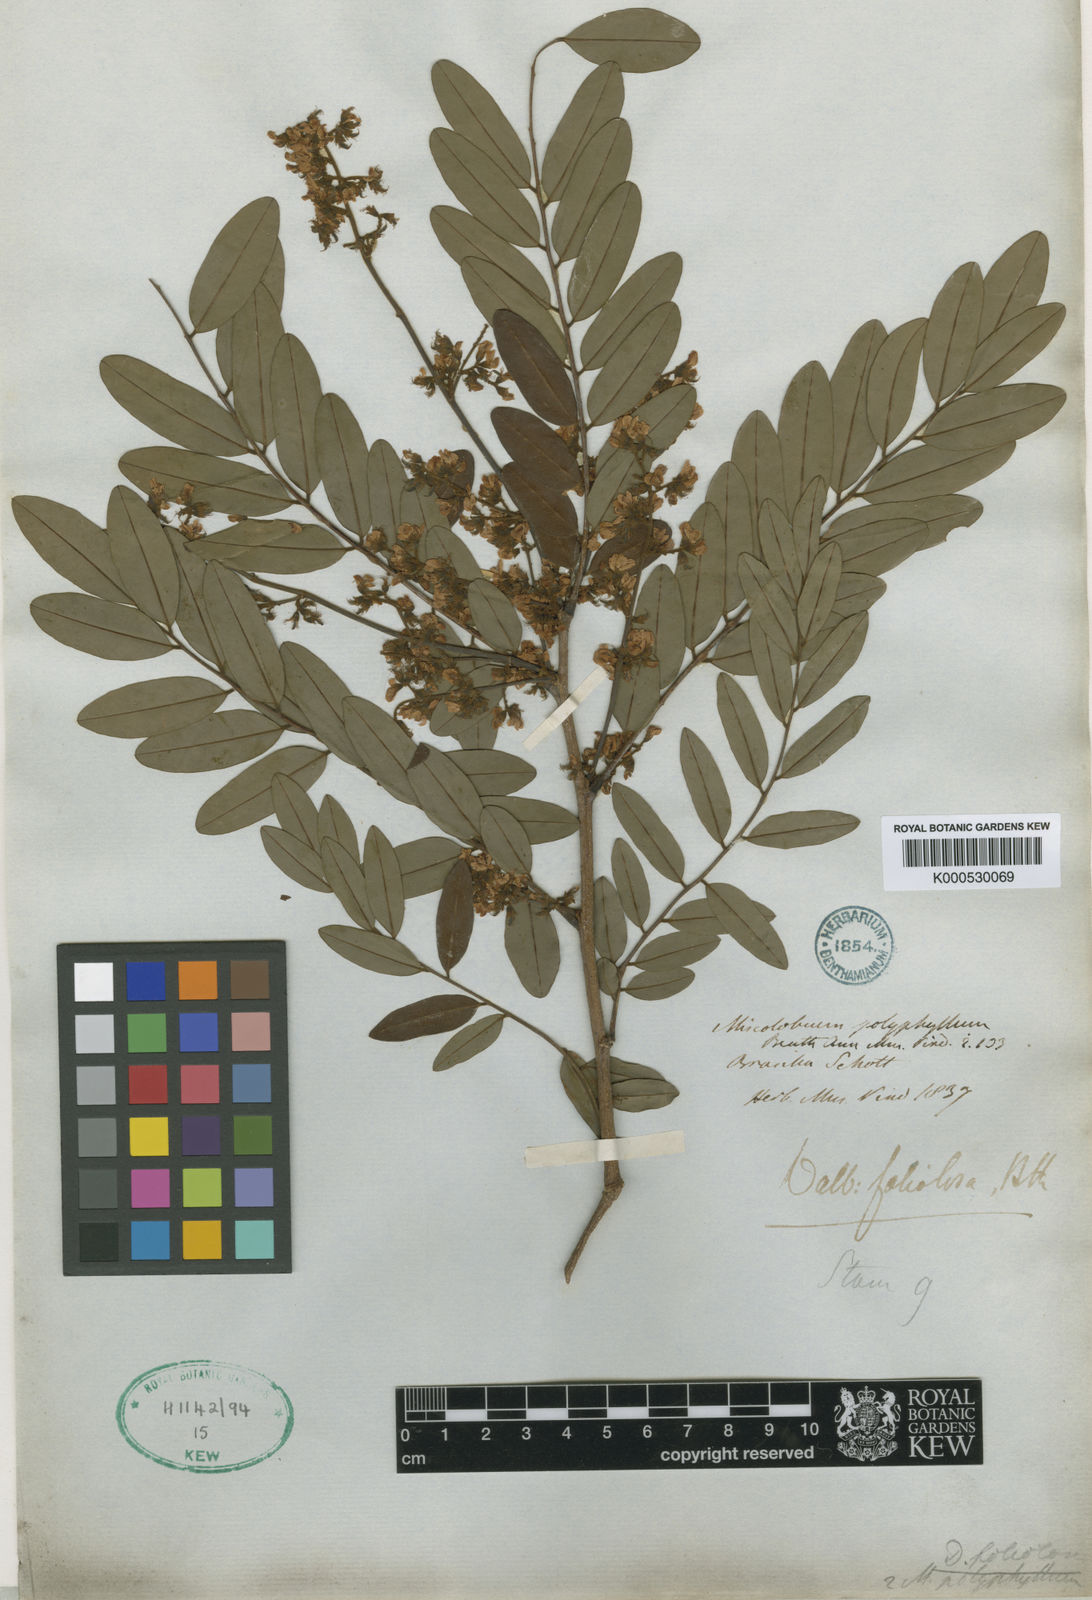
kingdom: Plantae
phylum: Tracheophyta
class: Magnoliopsida
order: Fabales
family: Fabaceae
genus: Dalbergia
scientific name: Dalbergia foliolosa
